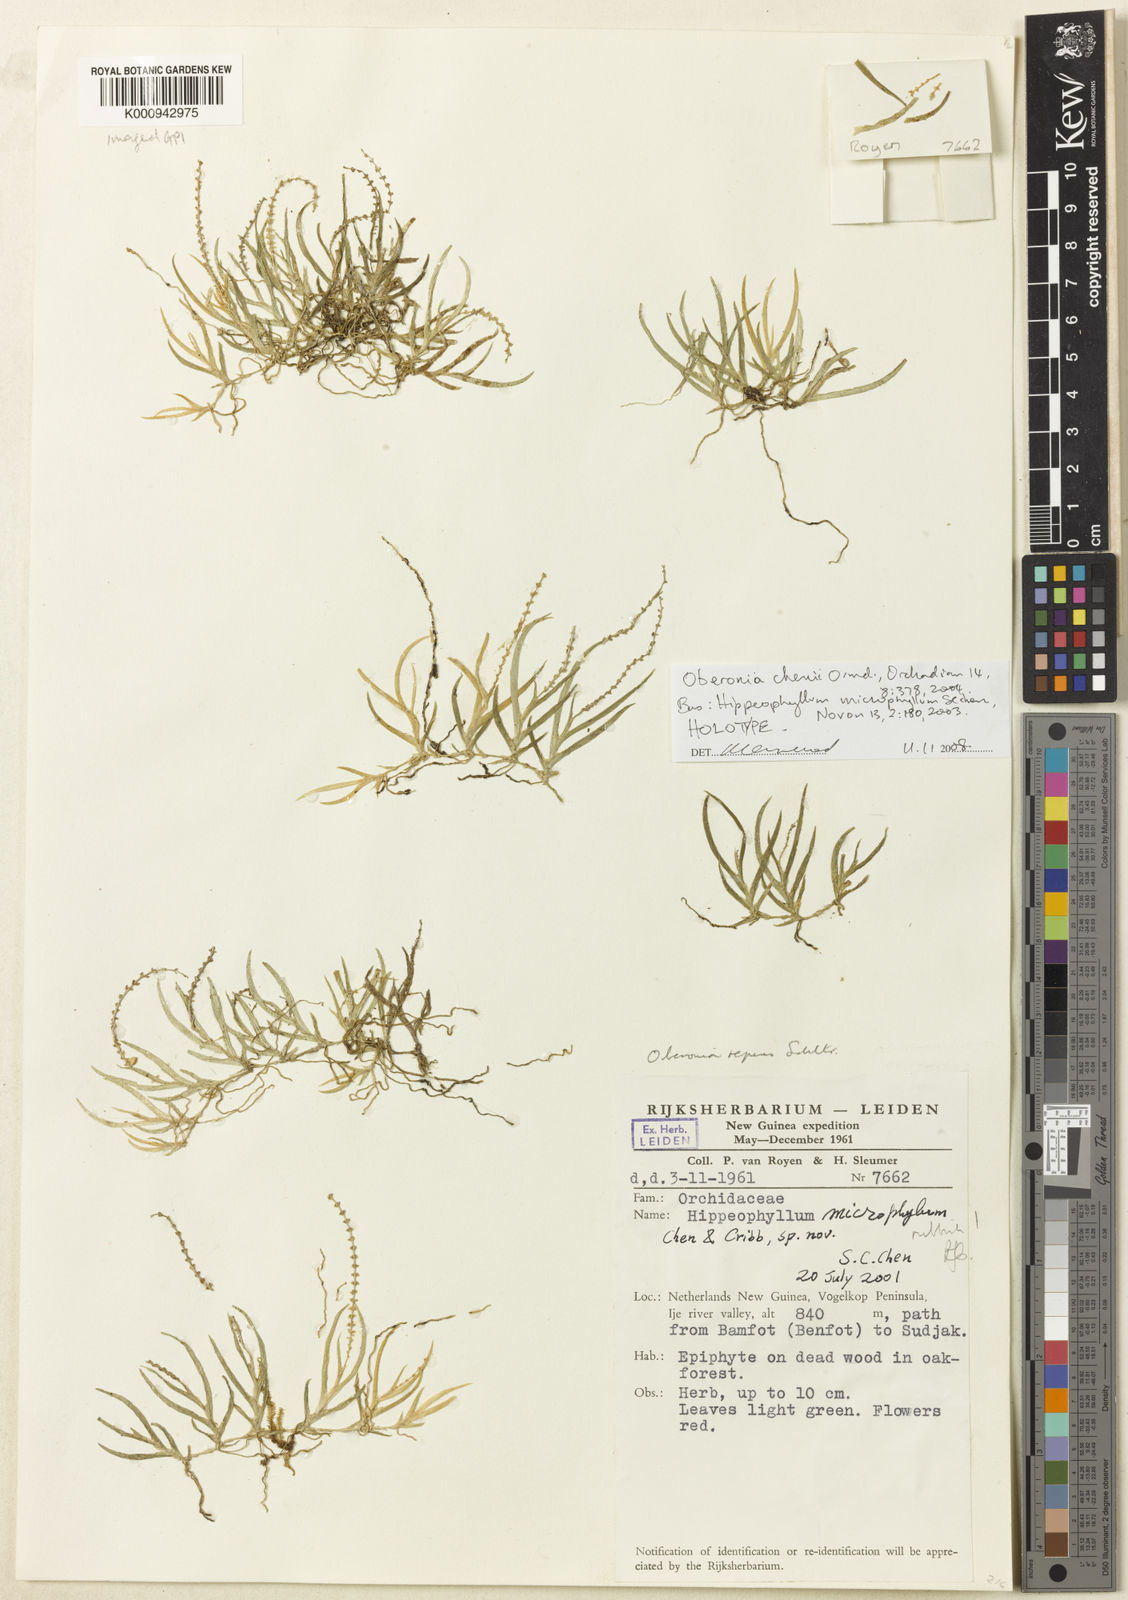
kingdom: Plantae
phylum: Tracheophyta
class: Liliopsida
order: Asparagales
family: Orchidaceae
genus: Oberonia
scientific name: Oberonia rhizomatosa
